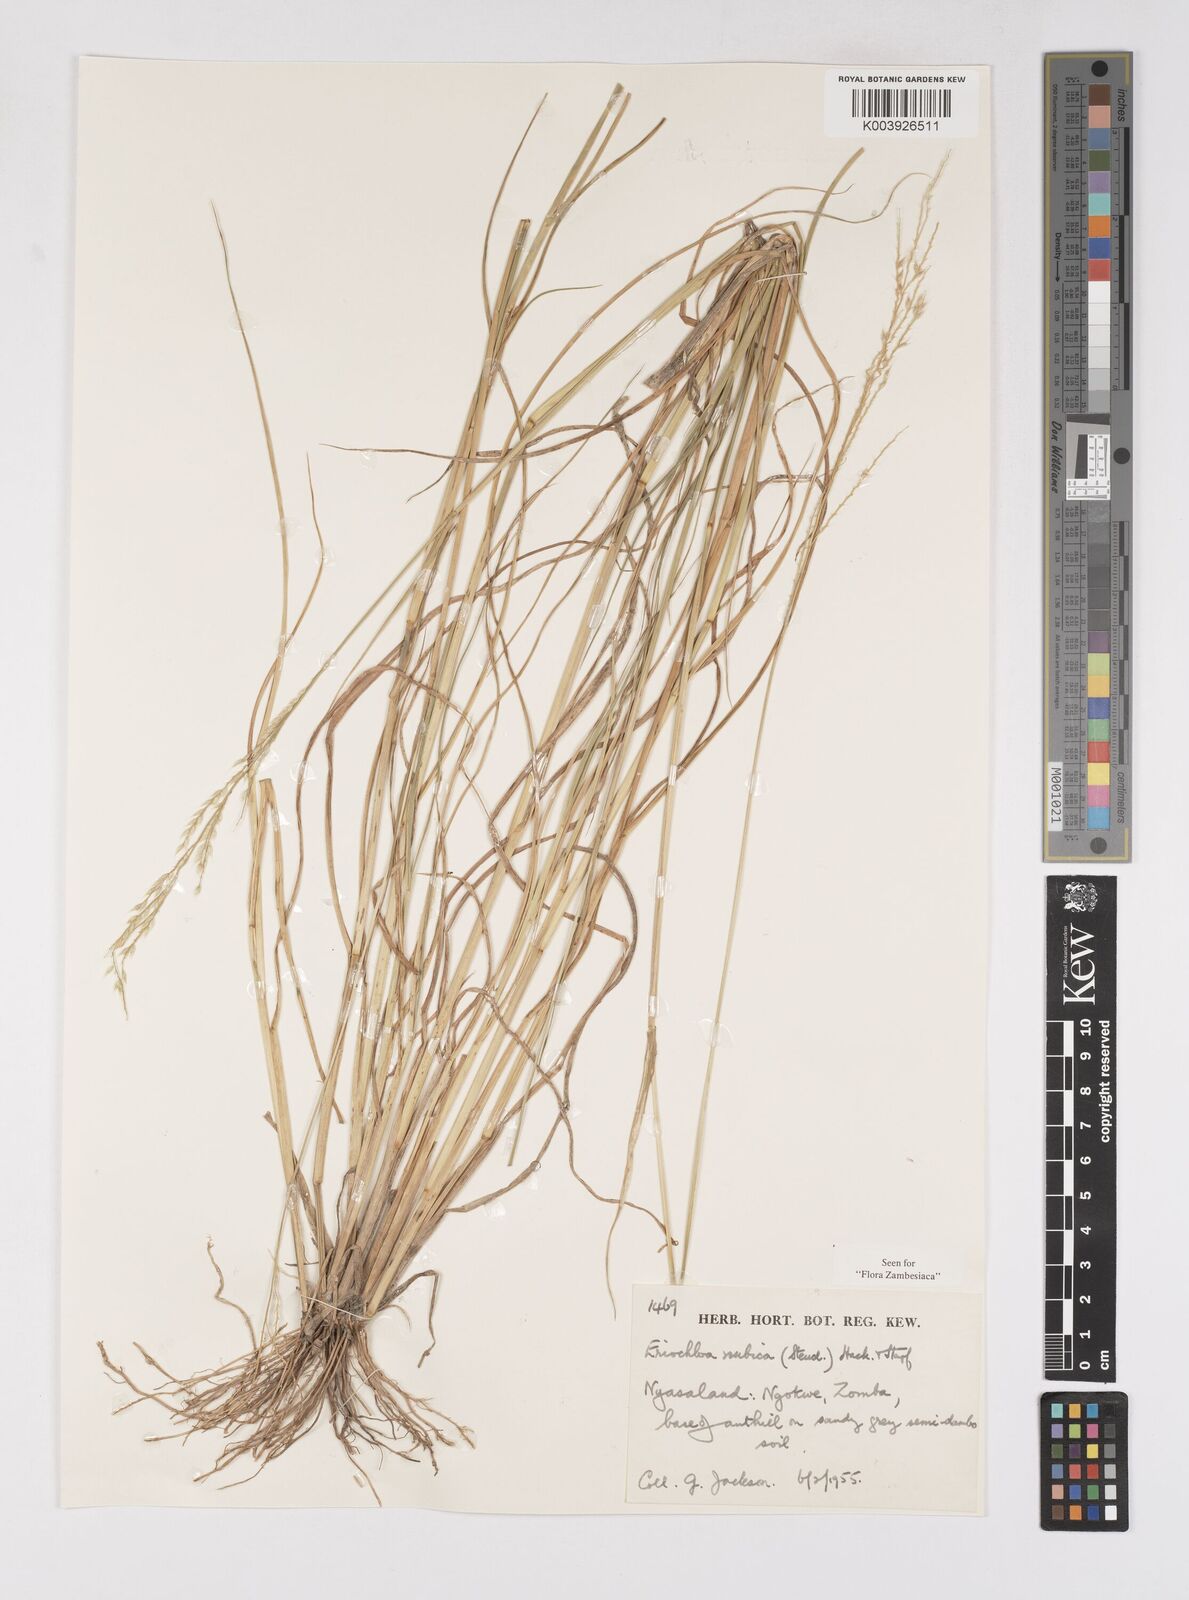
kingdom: Plantae
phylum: Tracheophyta
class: Liliopsida
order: Poales
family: Poaceae
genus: Eriochloa
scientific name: Eriochloa barbatus
